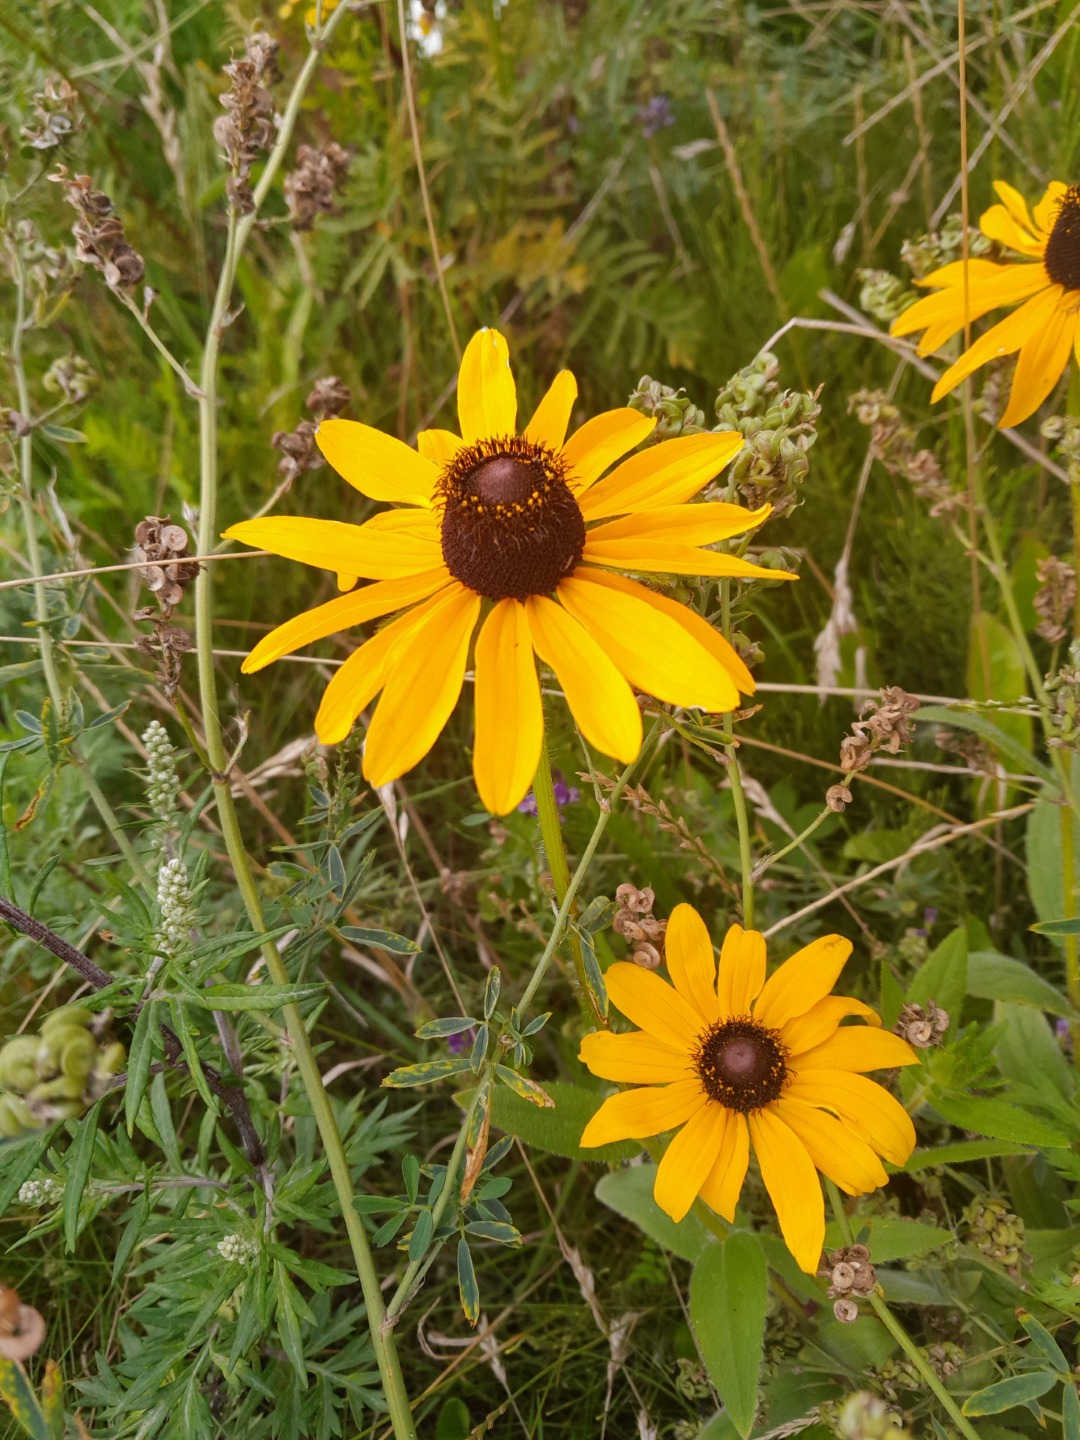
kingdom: Plantae
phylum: Tracheophyta
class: Magnoliopsida
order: Asterales
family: Asteraceae
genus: Rudbeckia
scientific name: Rudbeckia hirta
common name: Håret solhat
